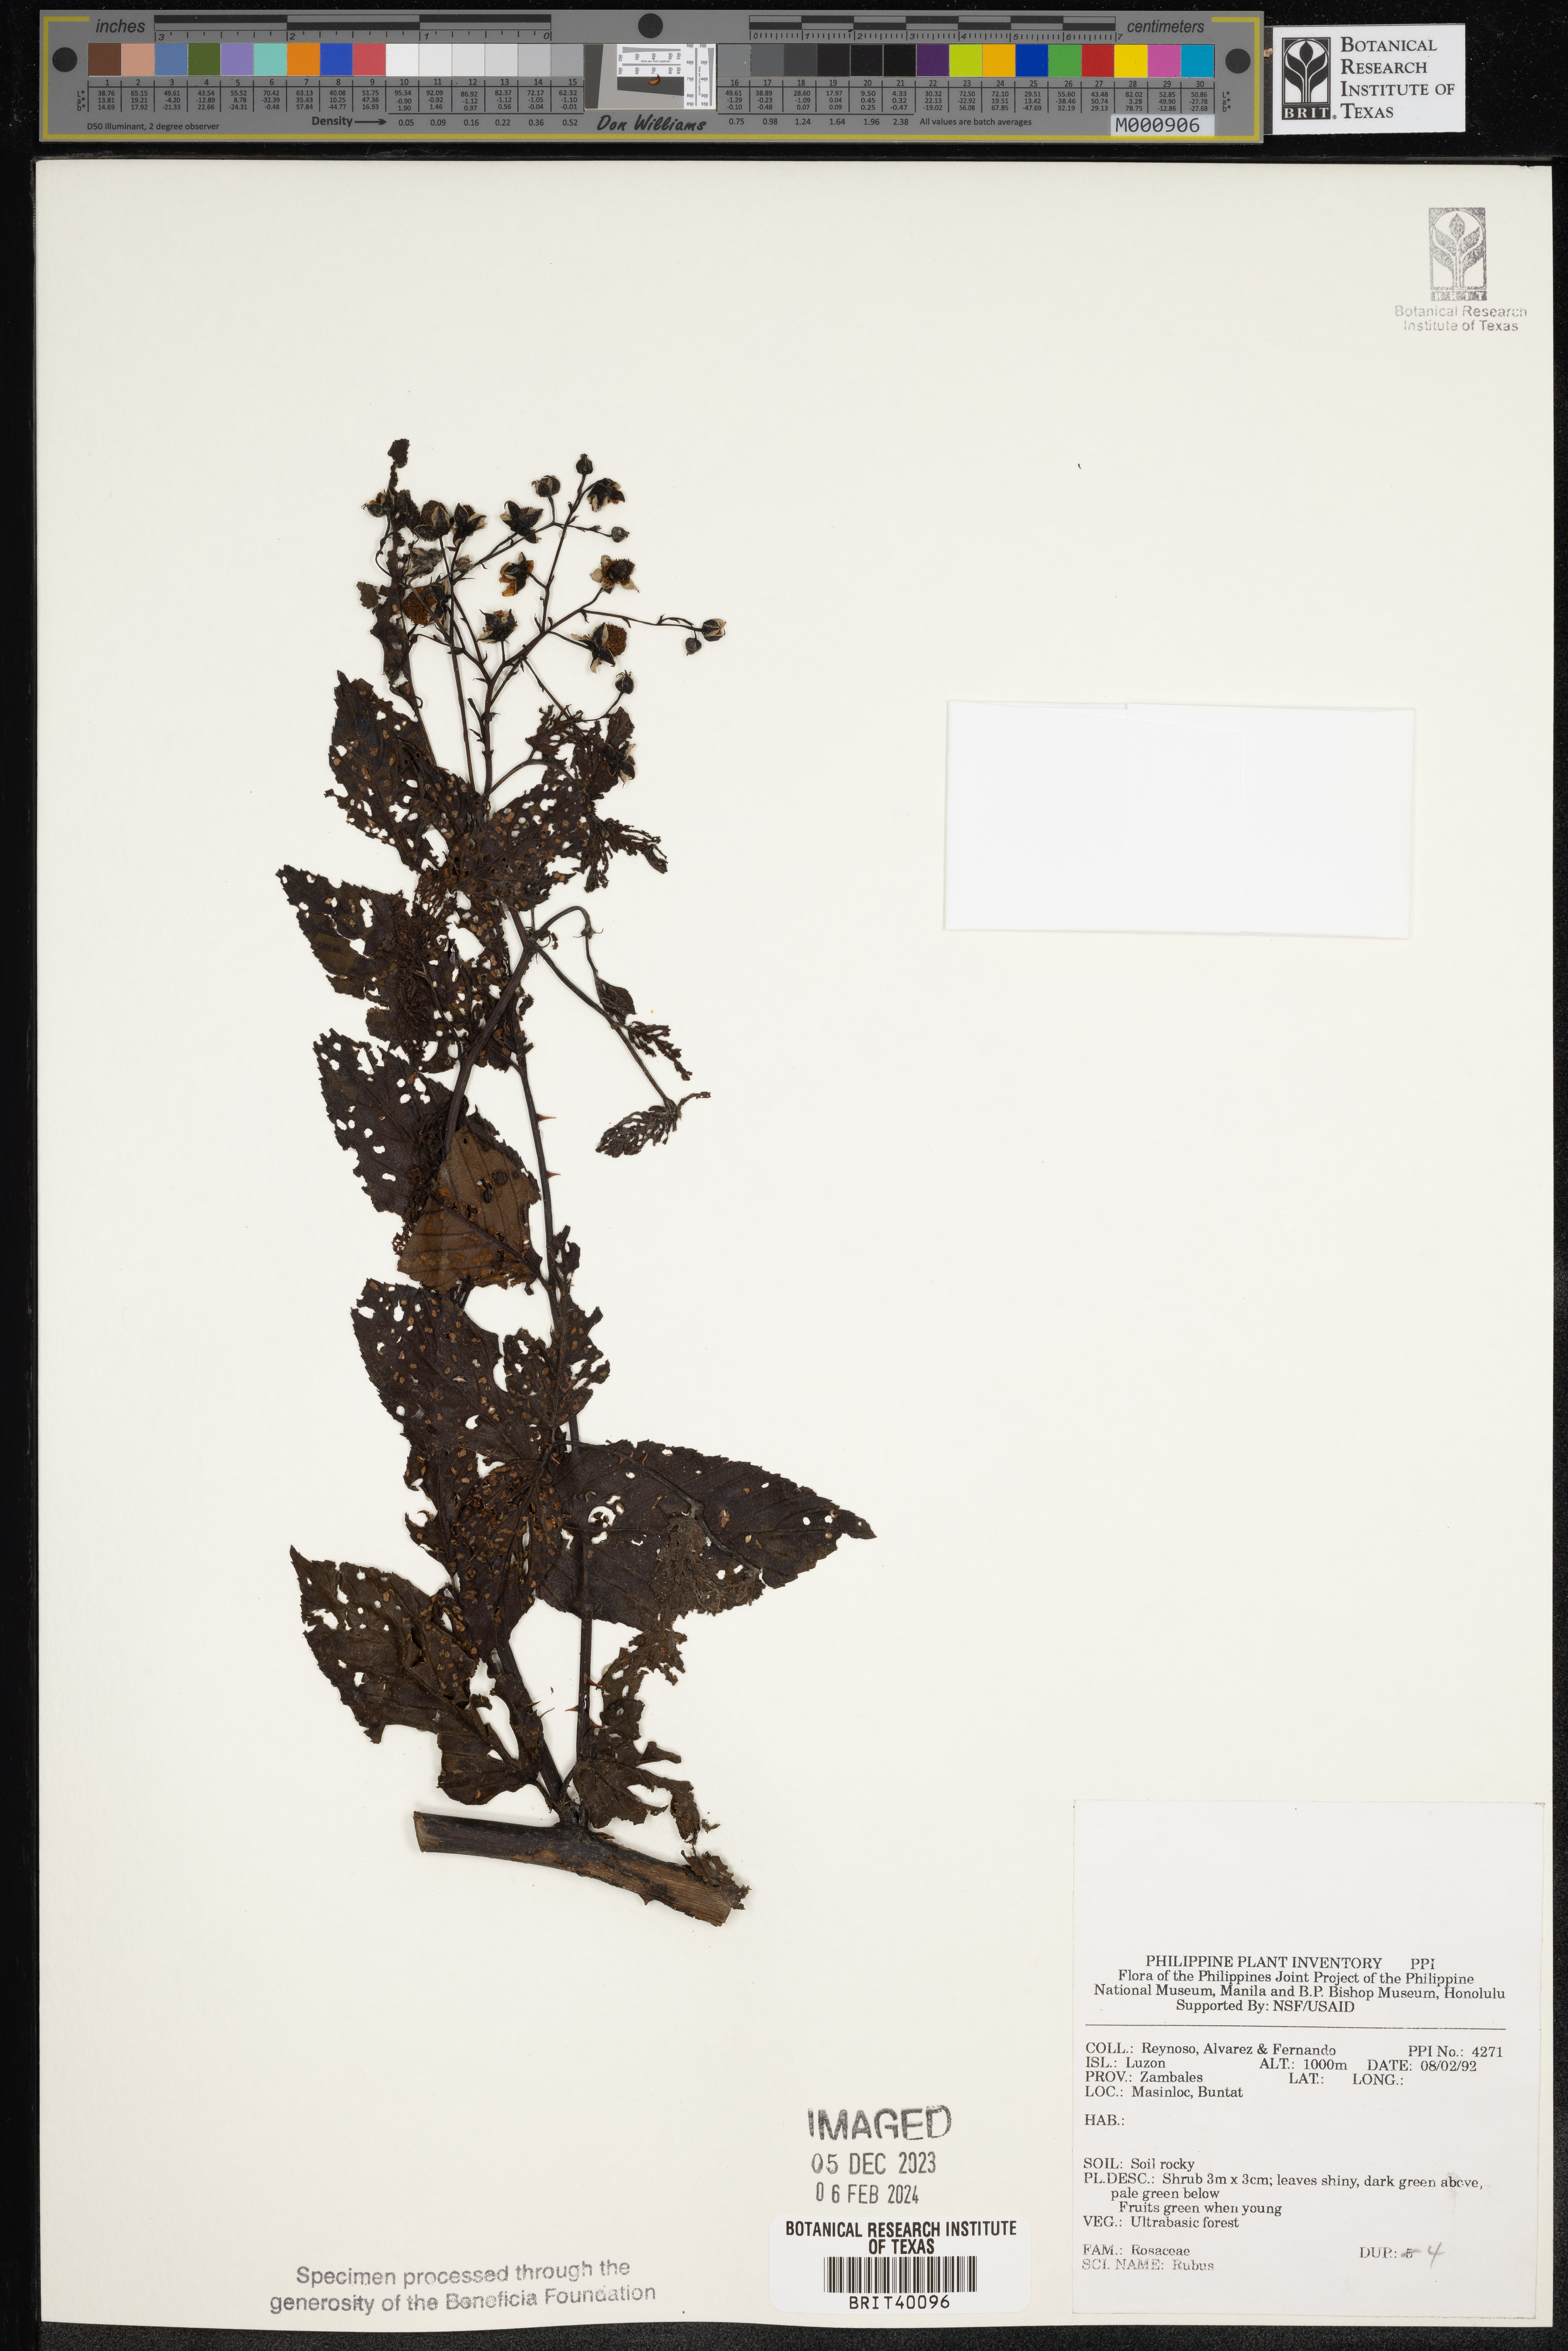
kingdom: Plantae
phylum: Tracheophyta
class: Magnoliopsida
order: Rosales
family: Rosaceae
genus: Rubus
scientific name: Rubus
